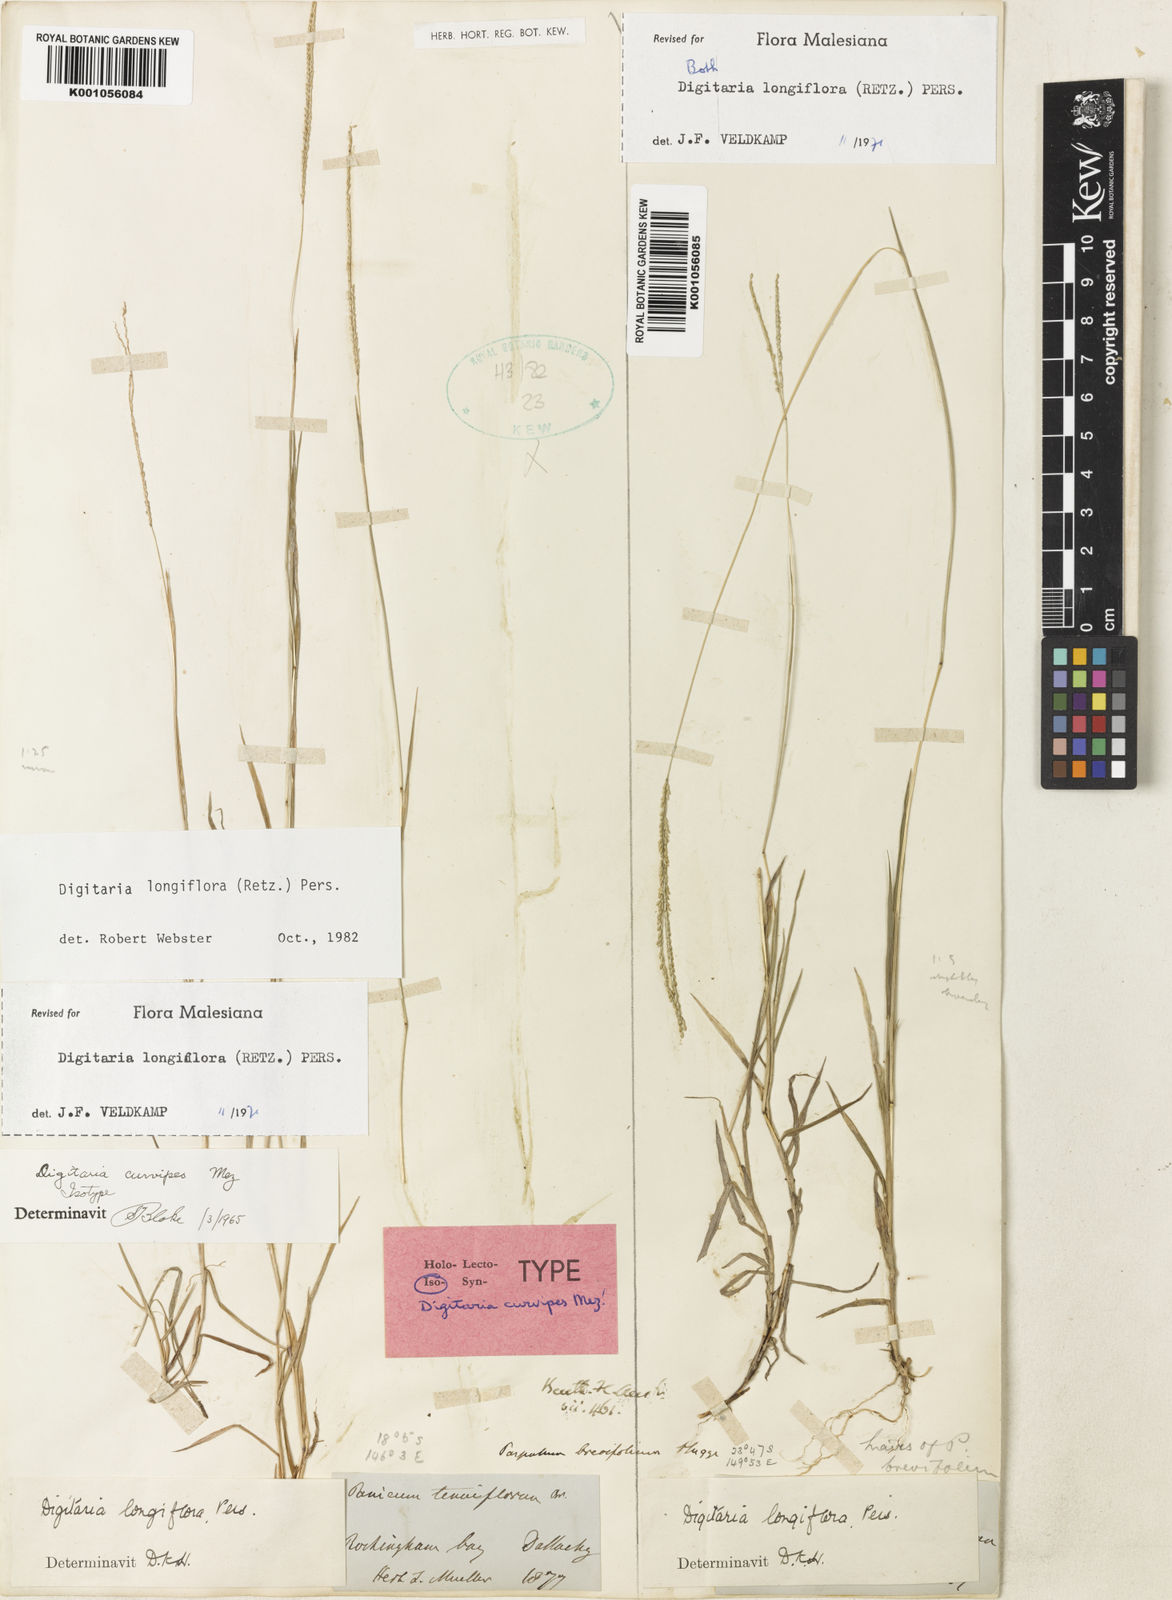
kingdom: Plantae
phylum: Tracheophyta
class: Liliopsida
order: Poales
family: Poaceae
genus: Digitaria
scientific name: Digitaria longiflora
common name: Wire crabgrass
